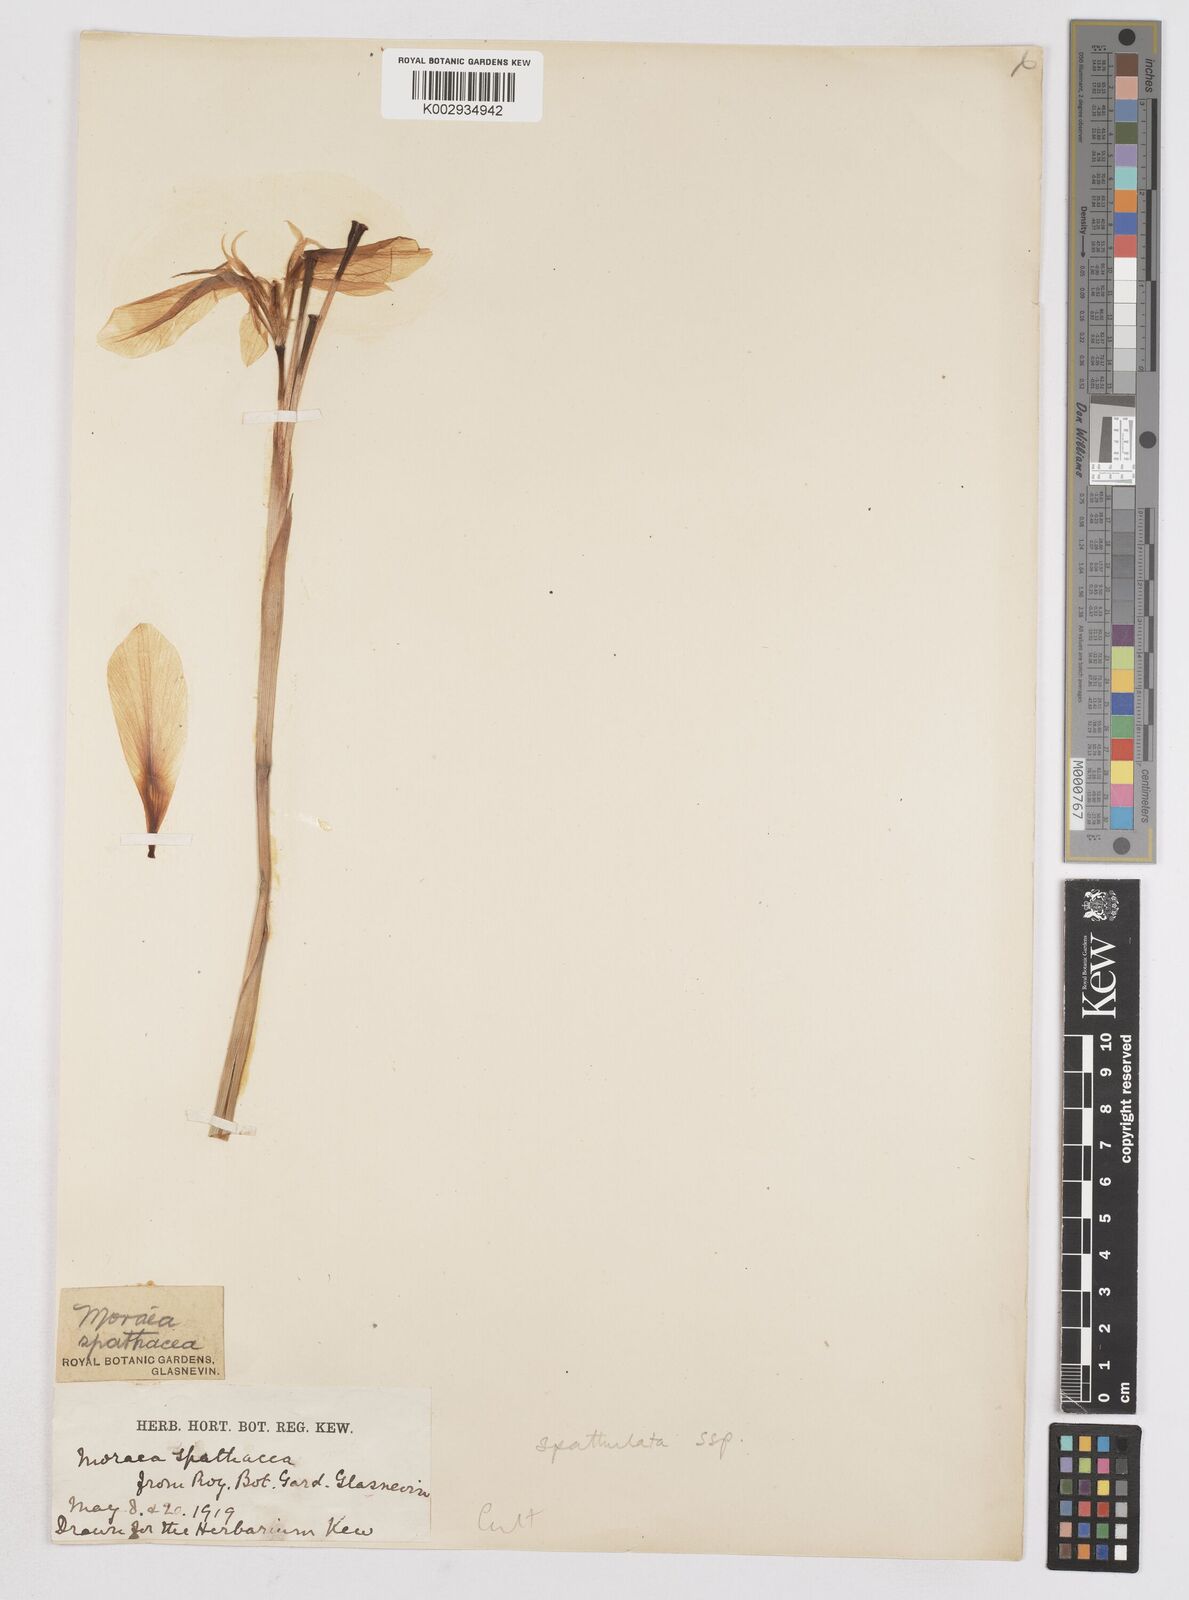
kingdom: Plantae
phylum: Tracheophyta
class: Liliopsida
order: Asparagales
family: Iridaceae
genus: Moraea
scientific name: Moraea spathulata
